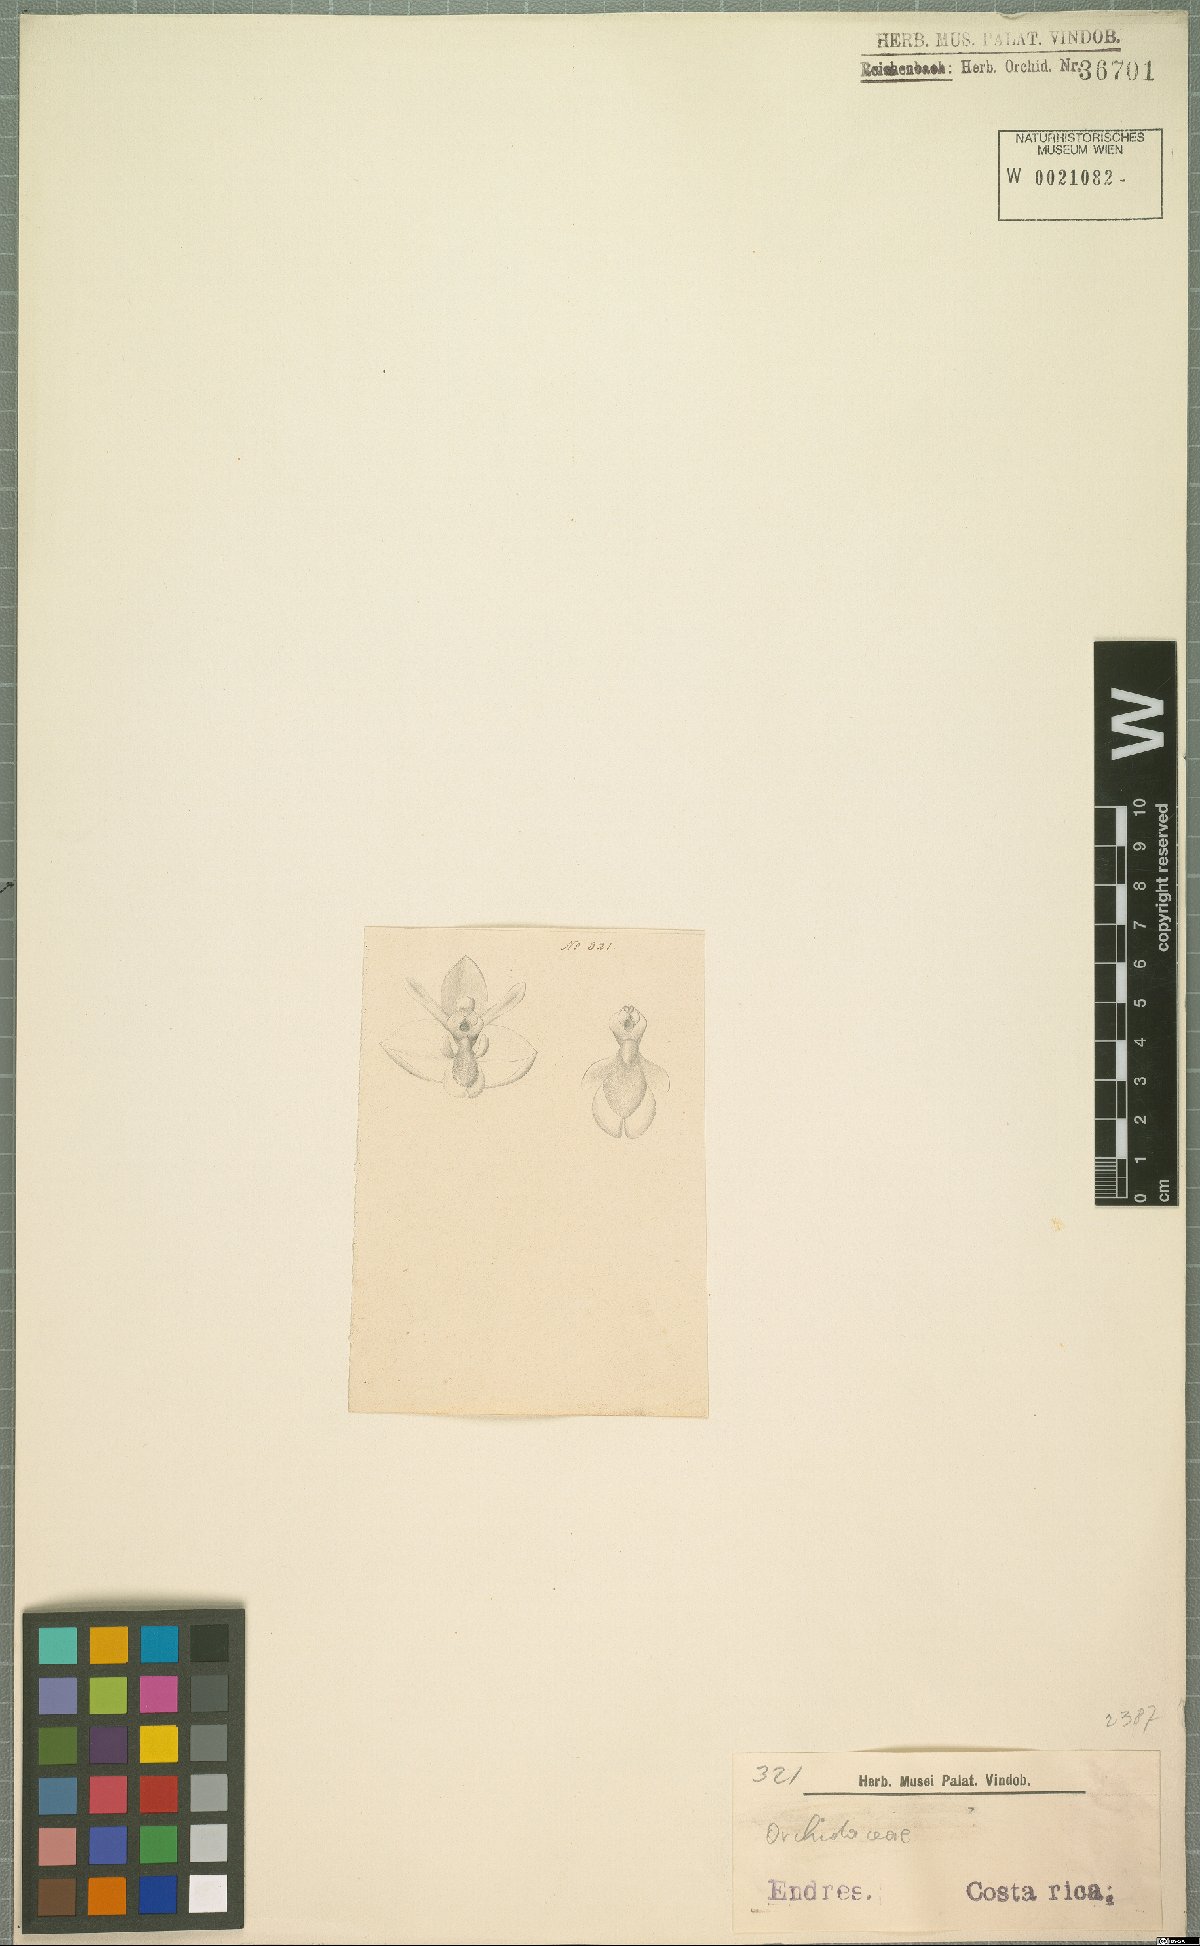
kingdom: Plantae
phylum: Tracheophyta
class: Liliopsida
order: Asparagales
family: Orchidaceae
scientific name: Orchidaceae
